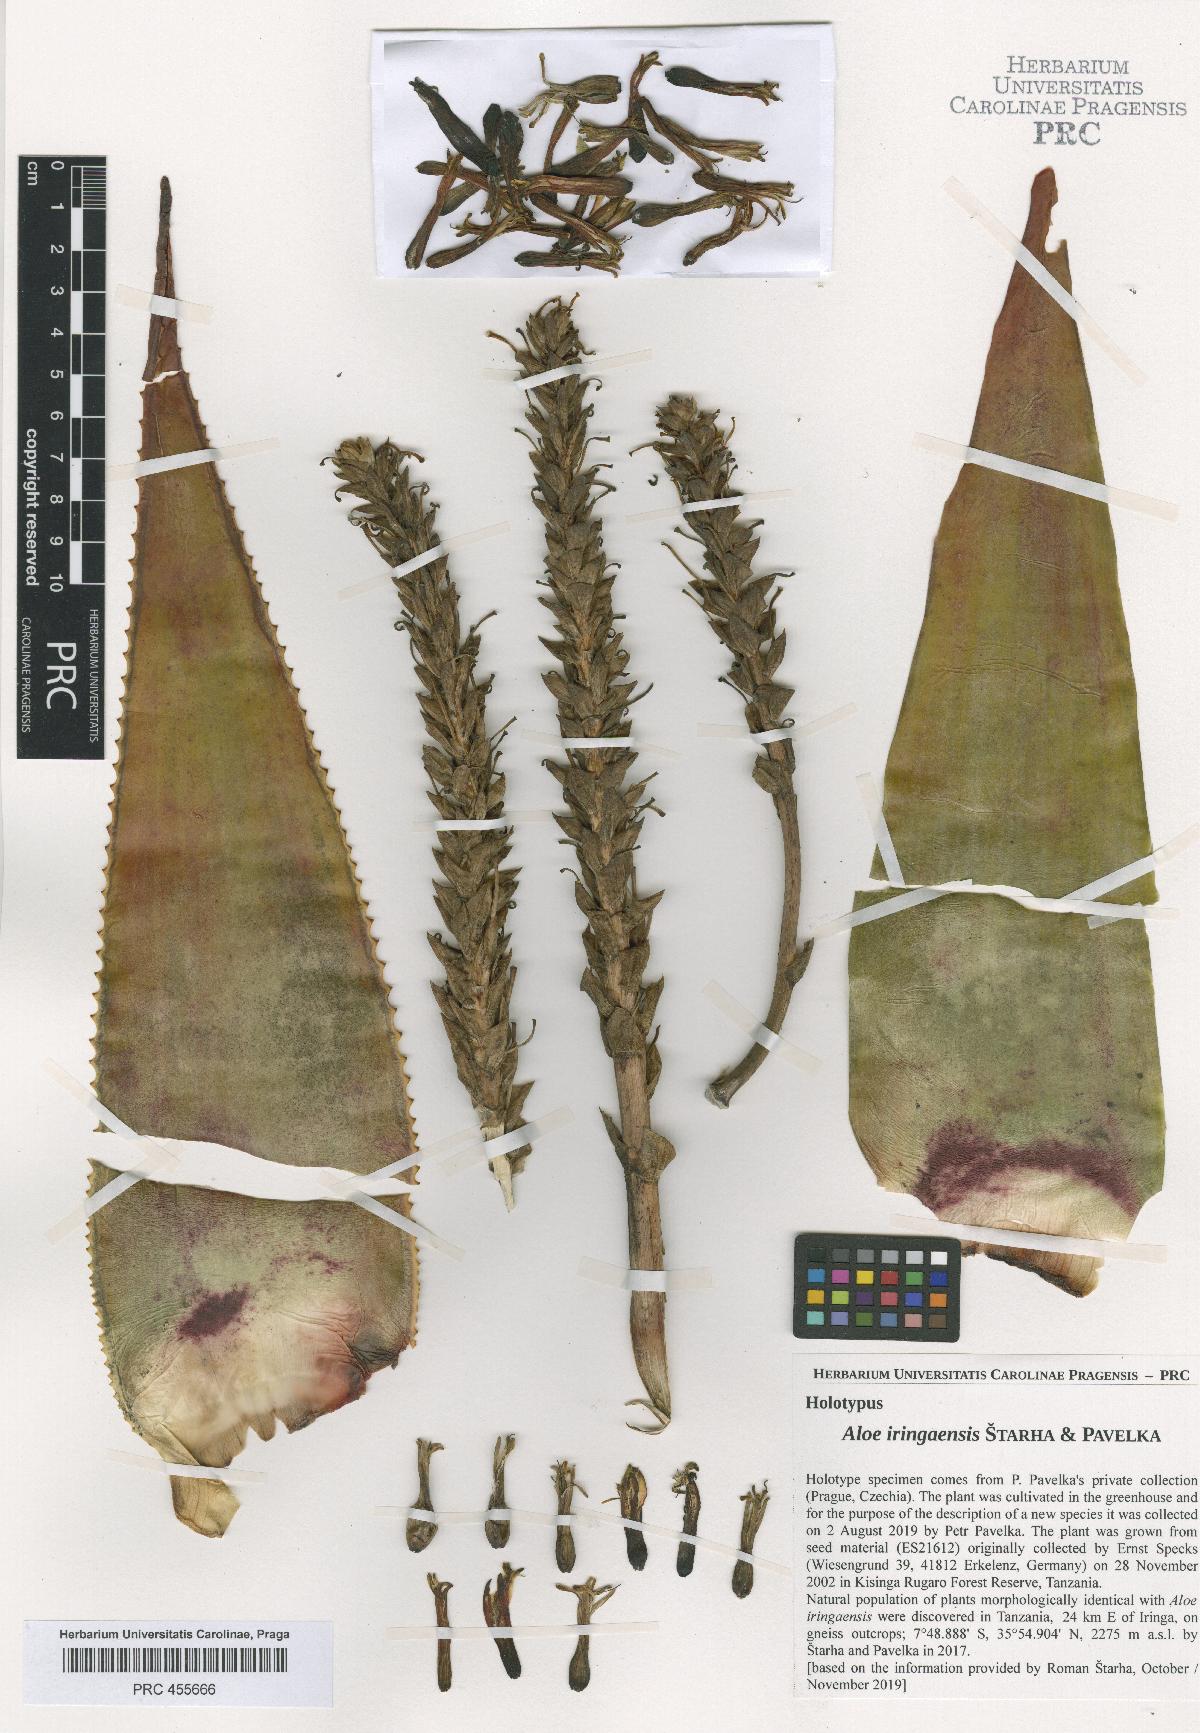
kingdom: Plantae
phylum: Tracheophyta
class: Liliopsida
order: Asparagales
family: Asphodelaceae
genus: Aloe
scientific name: Aloe iringaensis
